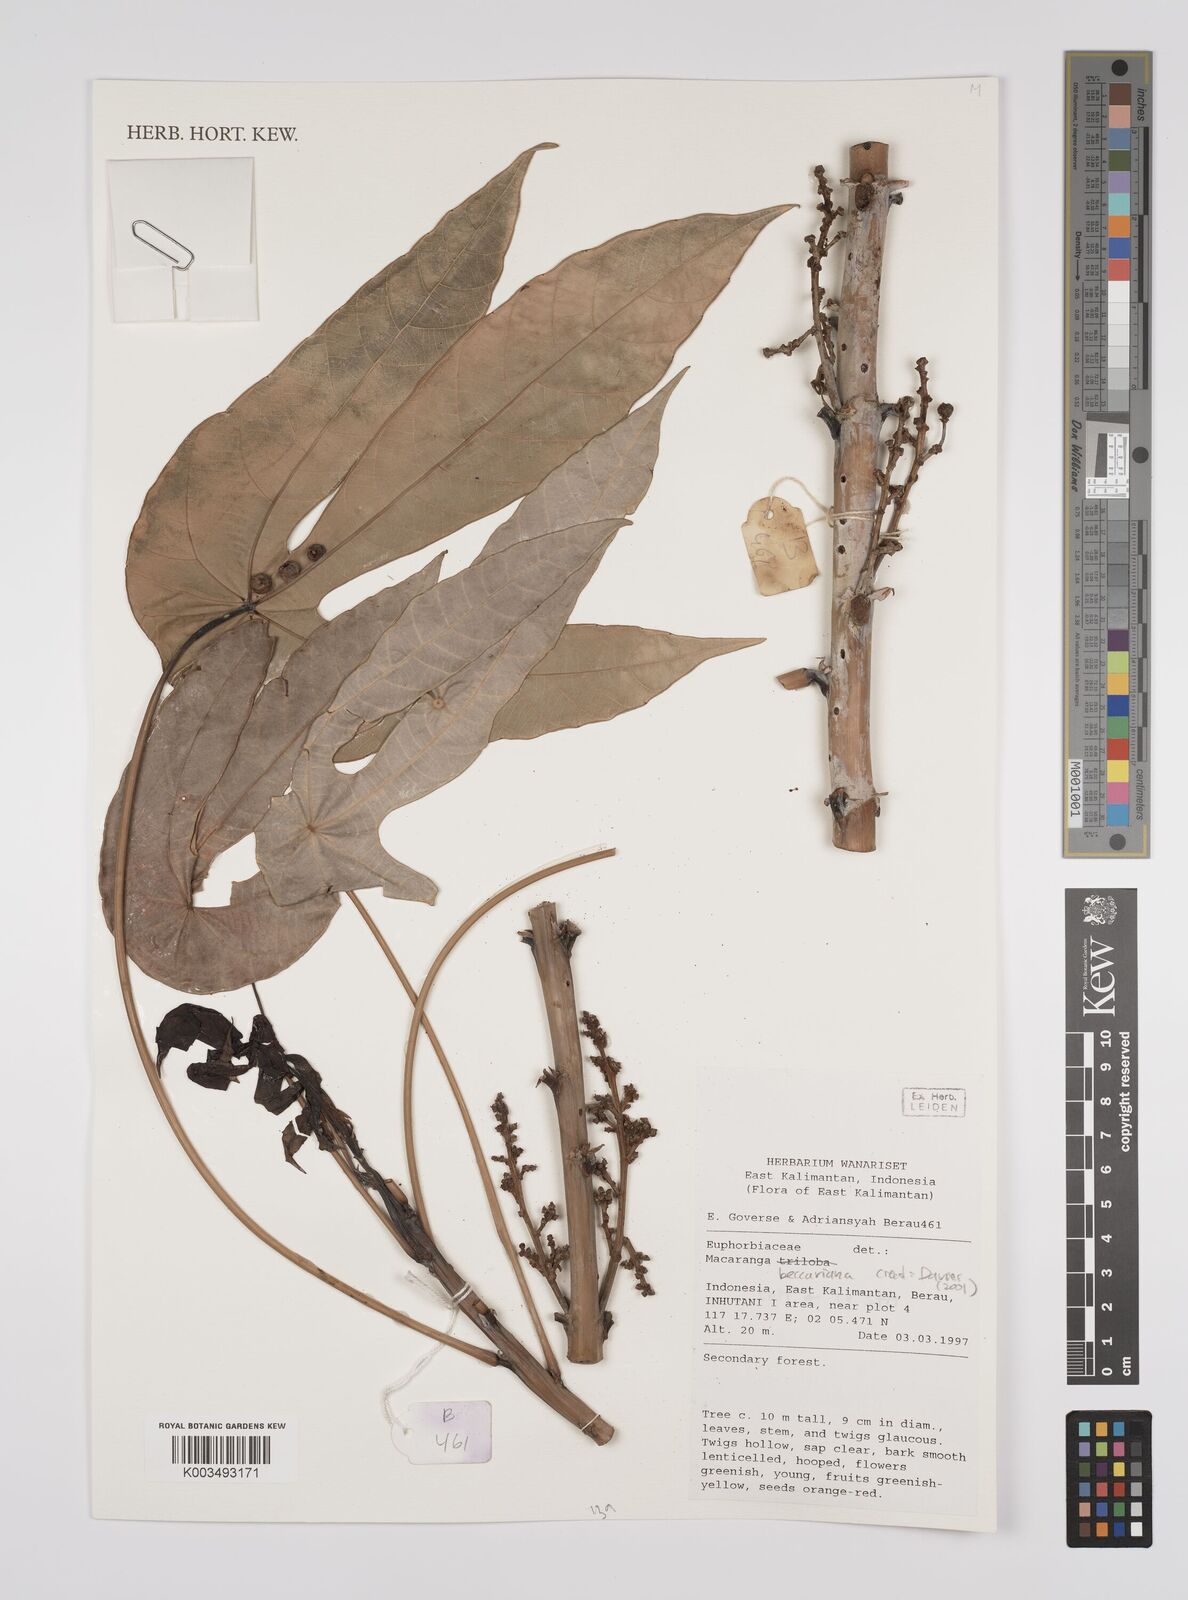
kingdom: Plantae
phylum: Tracheophyta
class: Magnoliopsida
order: Malpighiales
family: Euphorbiaceae
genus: Macaranga
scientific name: Macaranga beccariana
